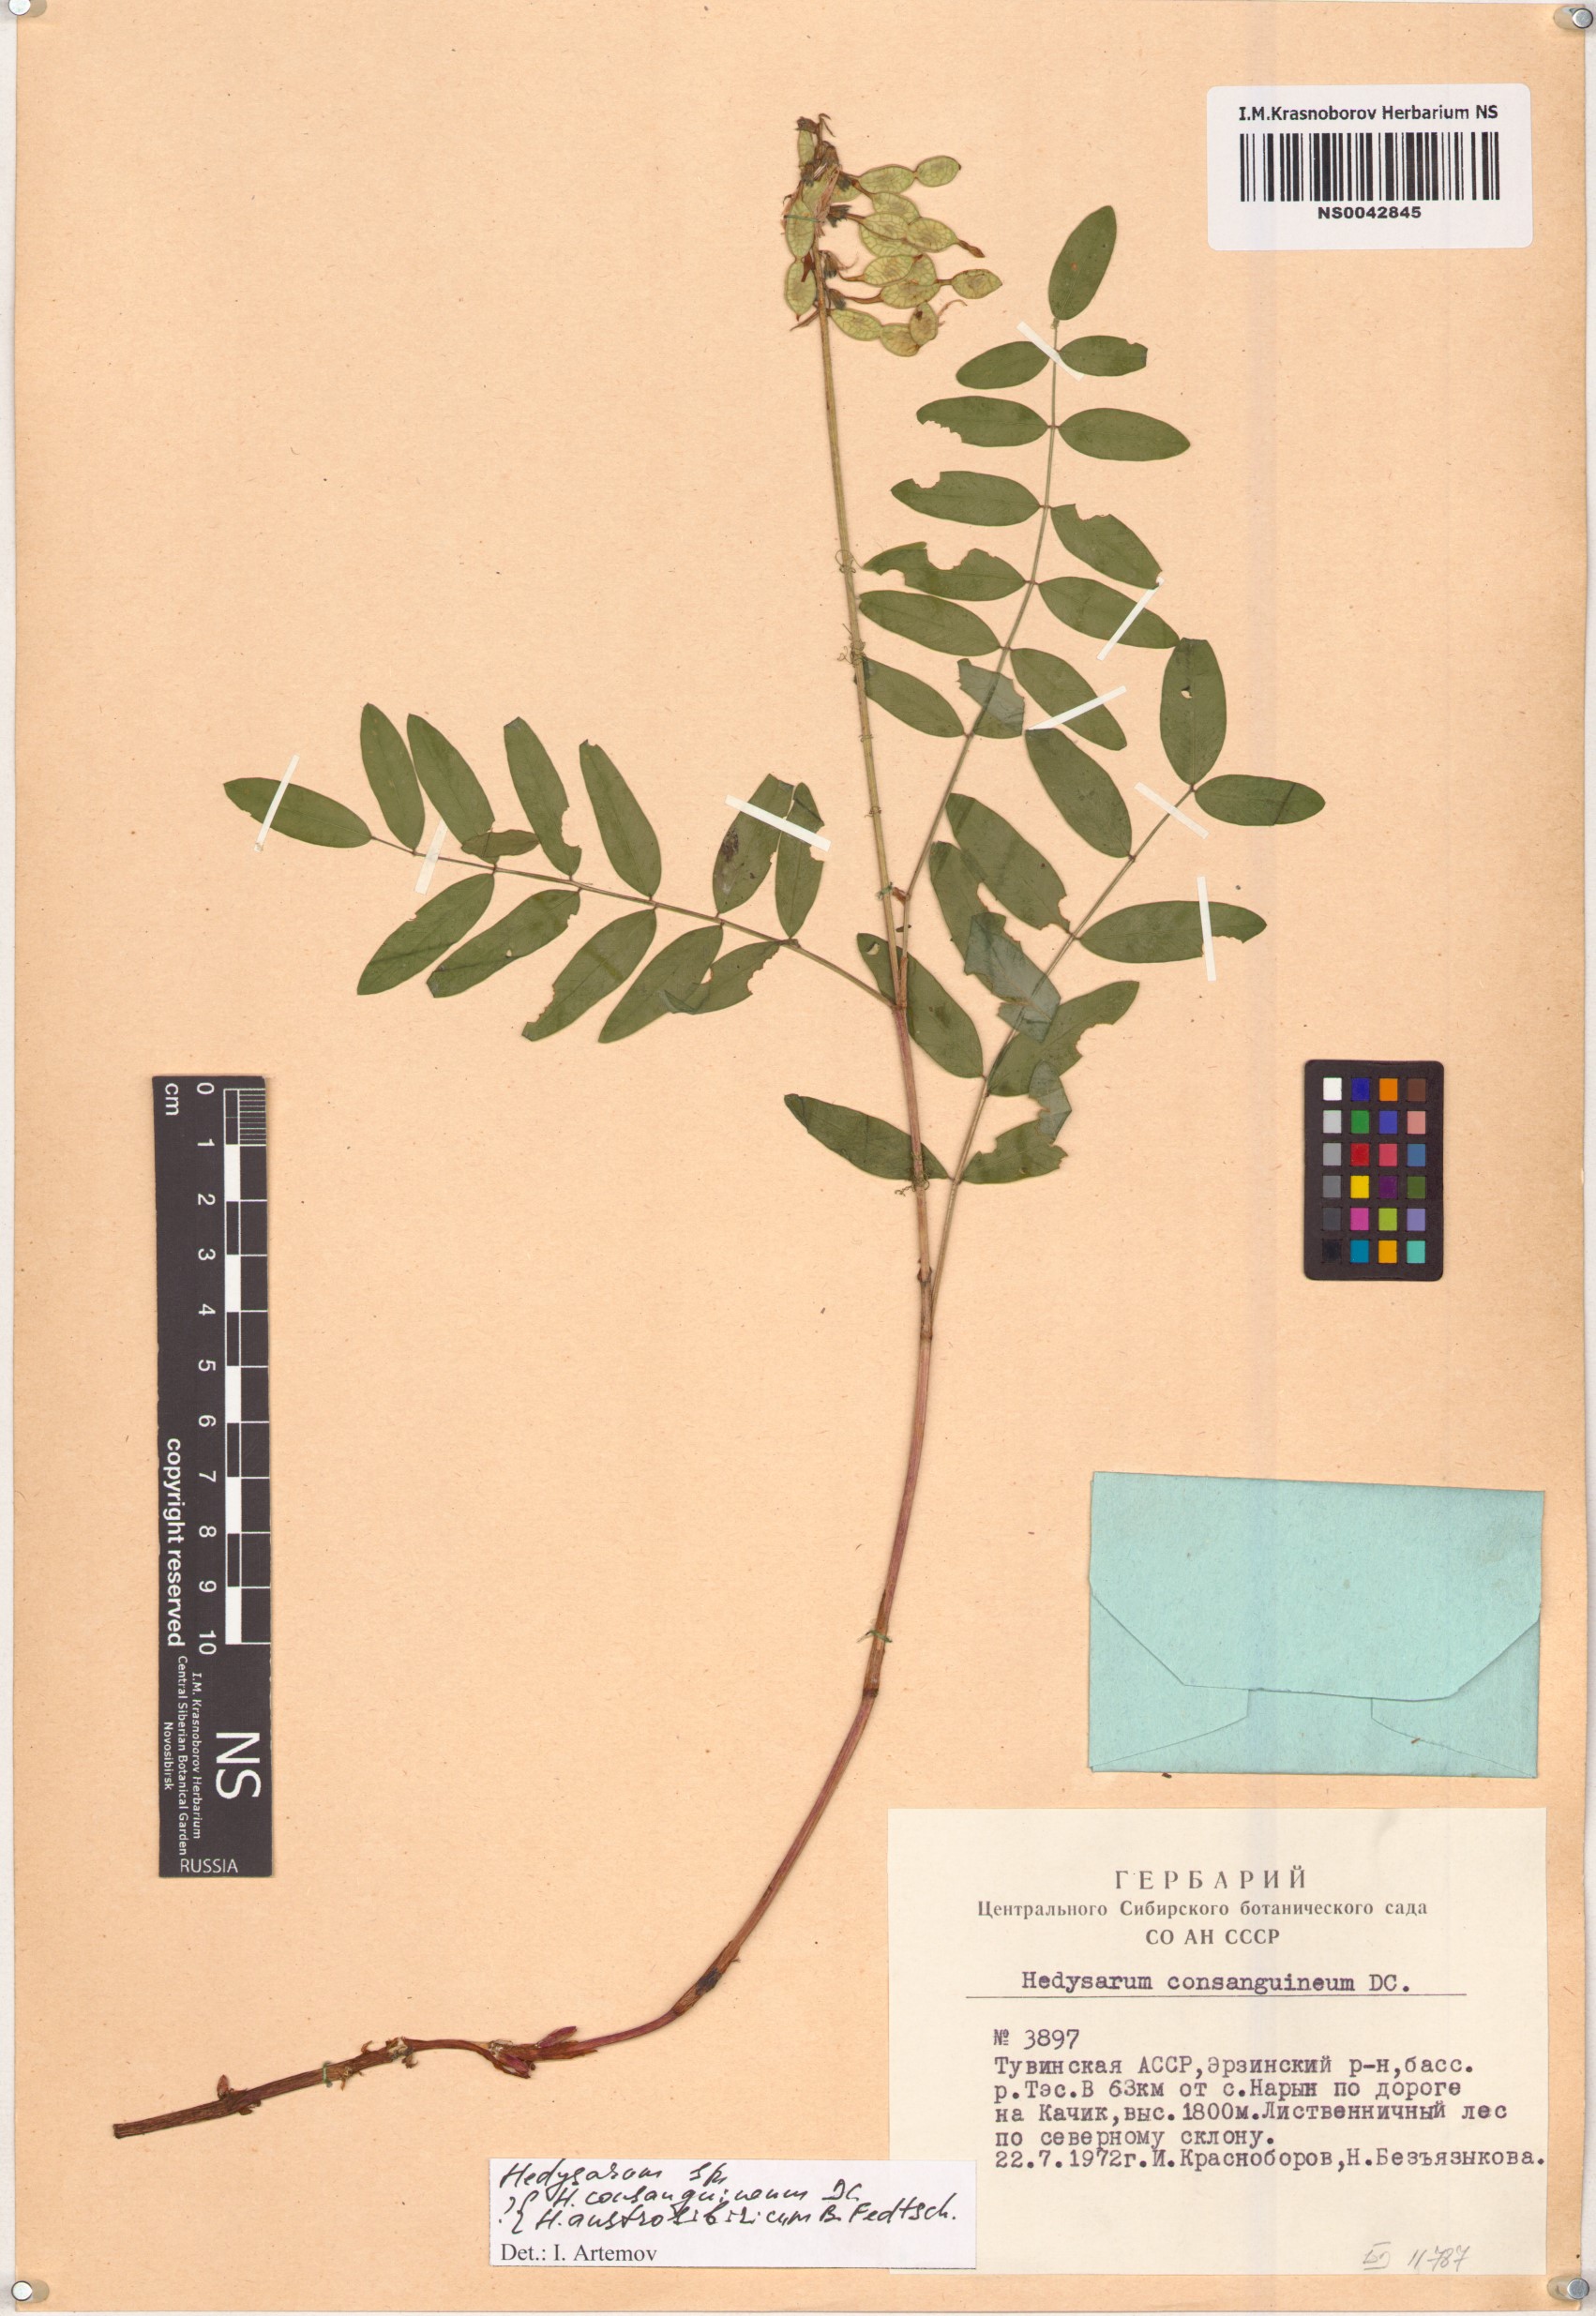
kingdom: Plantae
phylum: Tracheophyta
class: Magnoliopsida
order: Fabales
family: Fabaceae
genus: Hedysarum
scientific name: Hedysarum consanguineum
